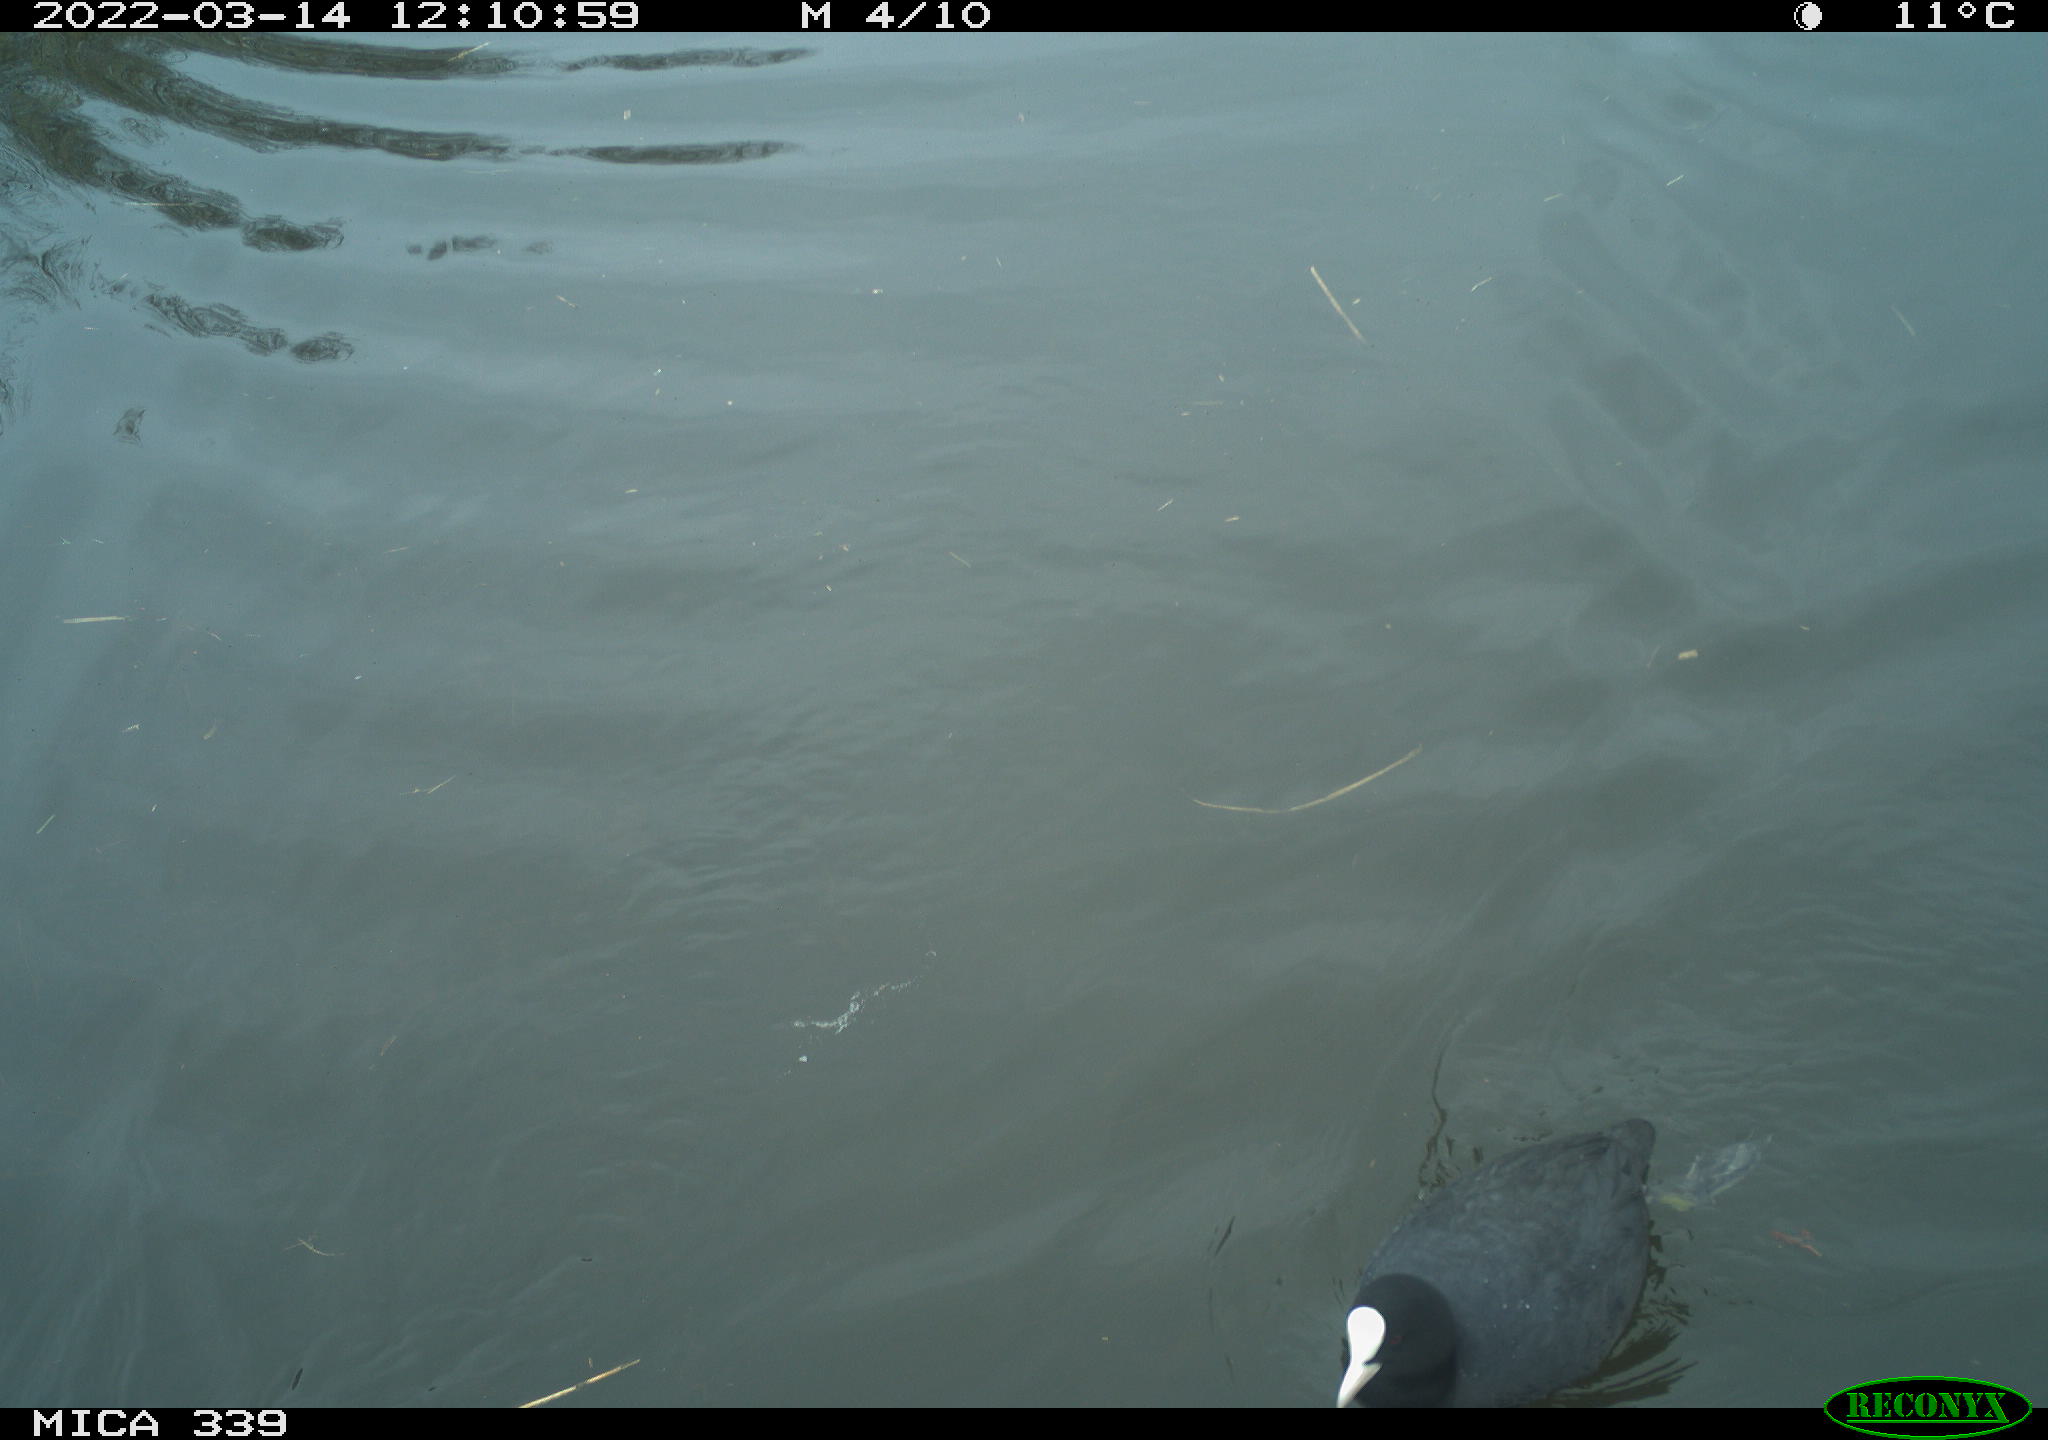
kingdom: Animalia
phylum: Chordata
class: Aves
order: Gruiformes
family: Rallidae
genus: Fulica
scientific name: Fulica atra
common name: Eurasian coot
